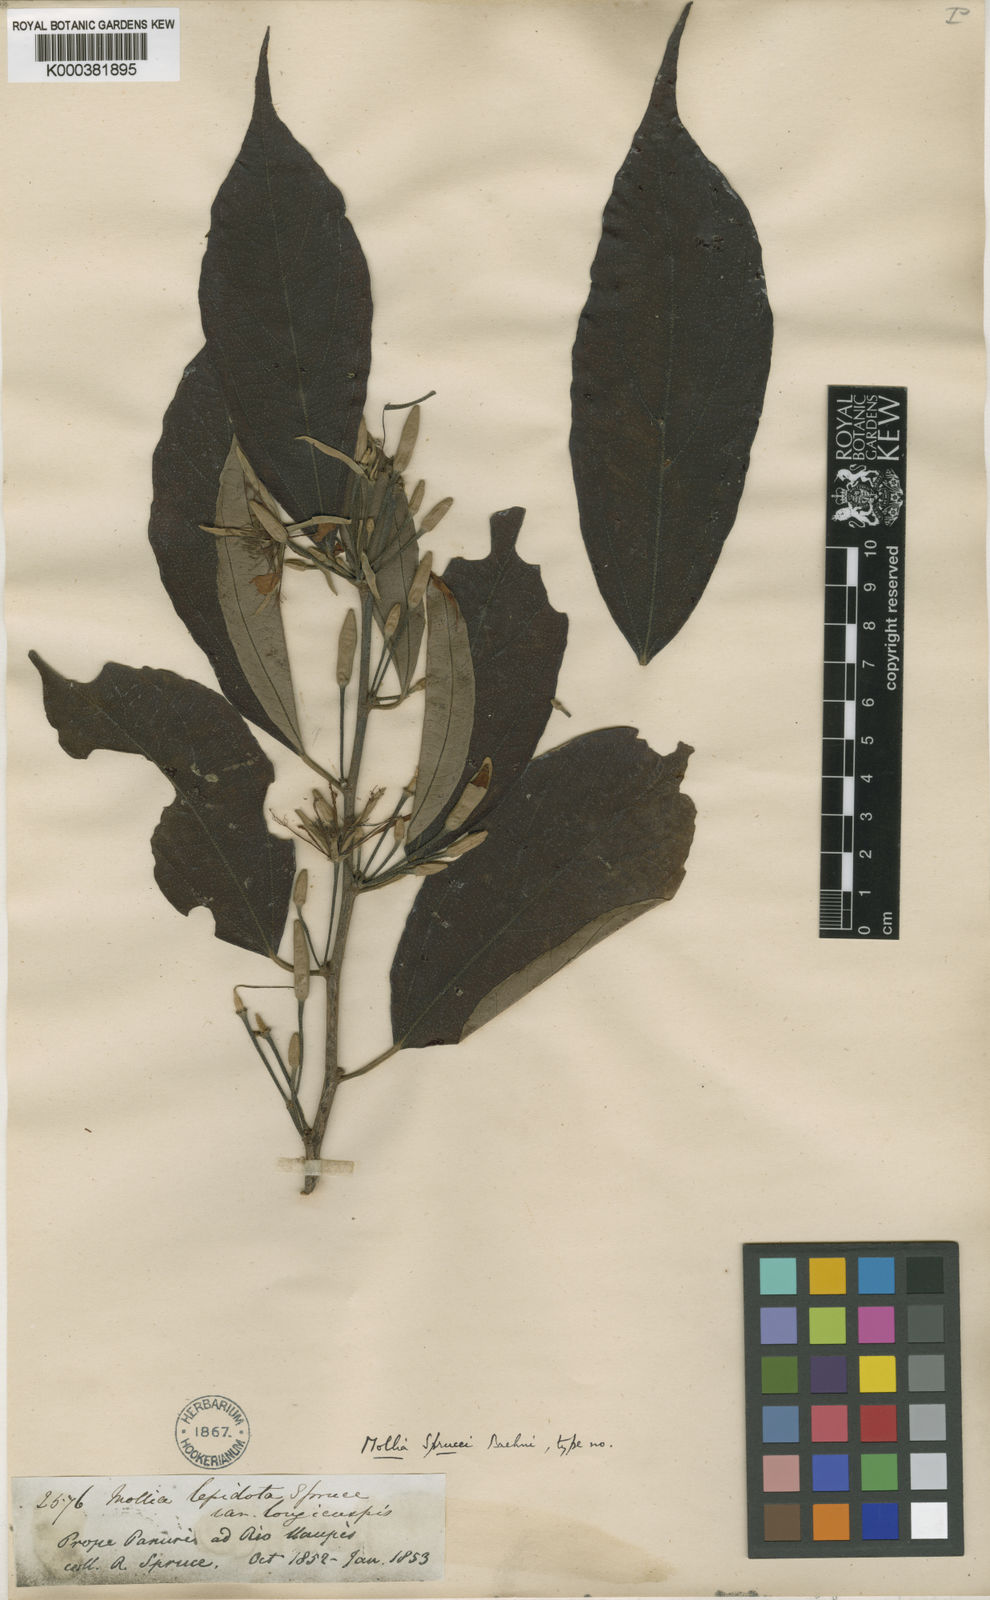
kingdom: Plantae
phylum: Tracheophyta
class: Magnoliopsida
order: Malvales
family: Malvaceae
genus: Mollia
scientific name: Mollia lepidota
